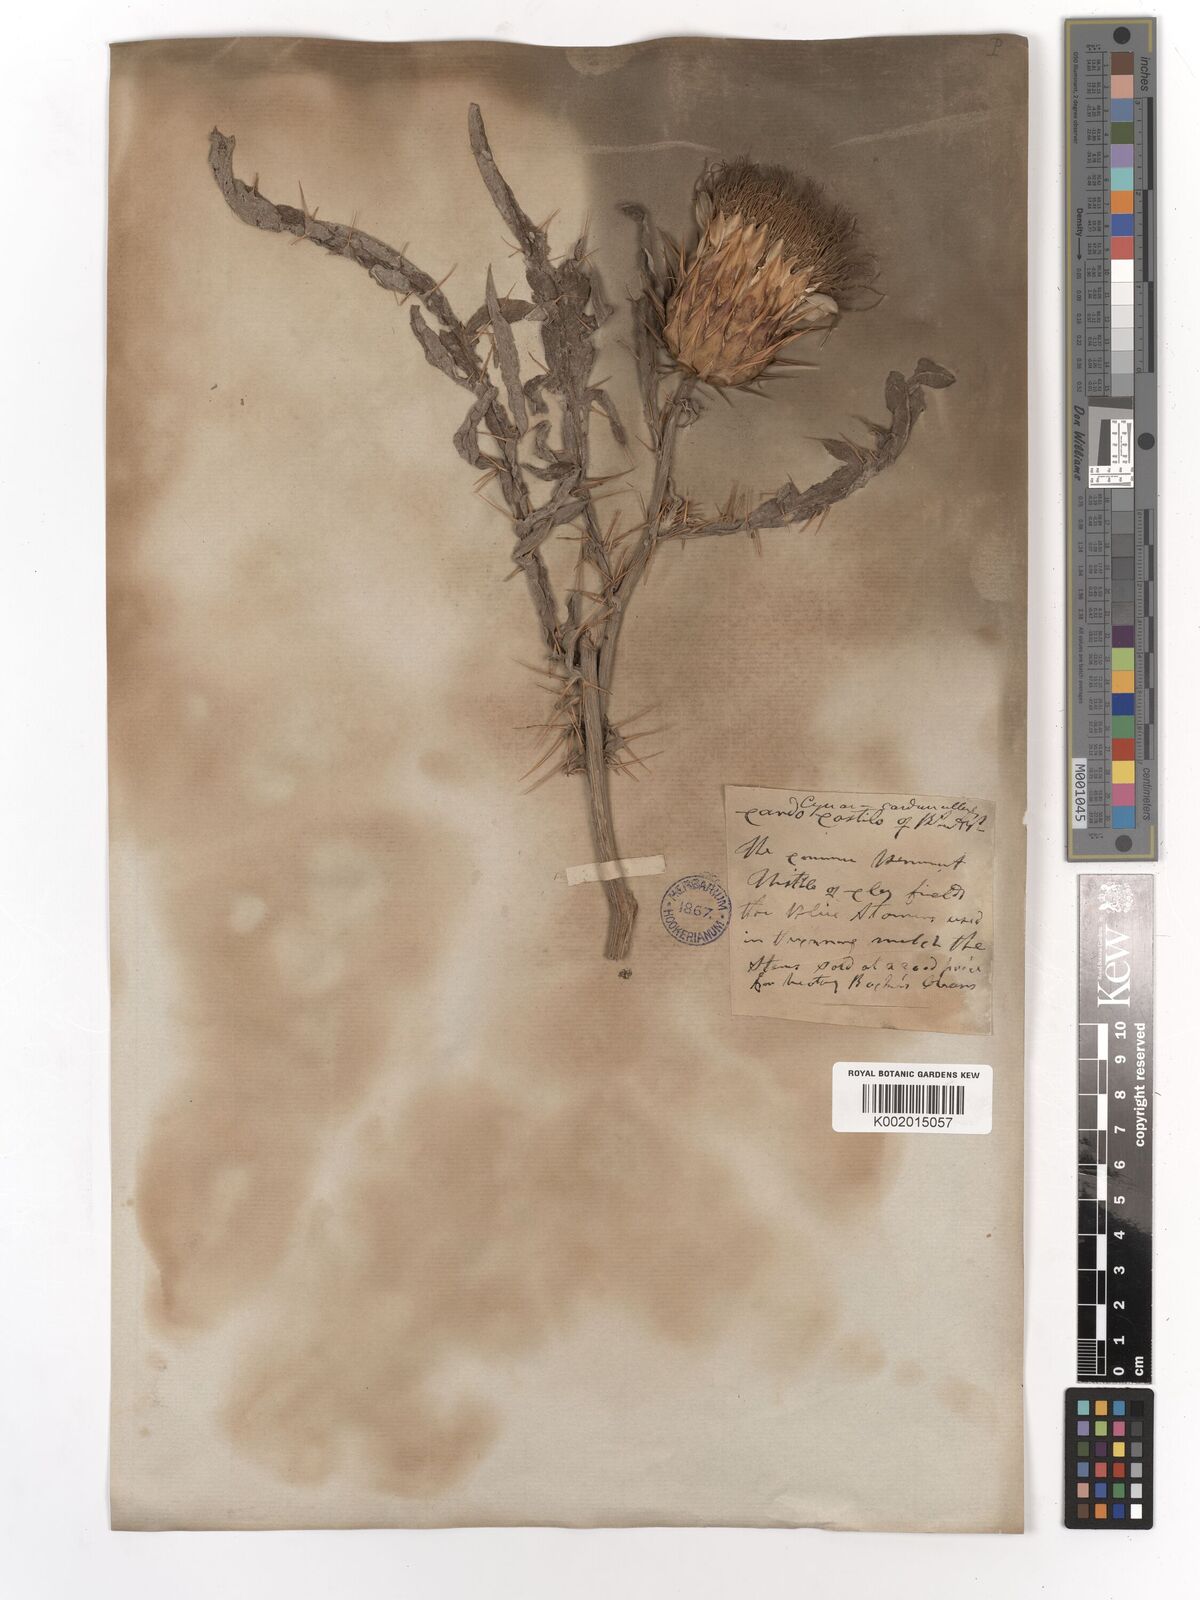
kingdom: Plantae
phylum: Tracheophyta
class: Magnoliopsida
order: Asterales
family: Asteraceae
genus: Cynara
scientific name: Cynara cardunculus
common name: Globe artichoke
